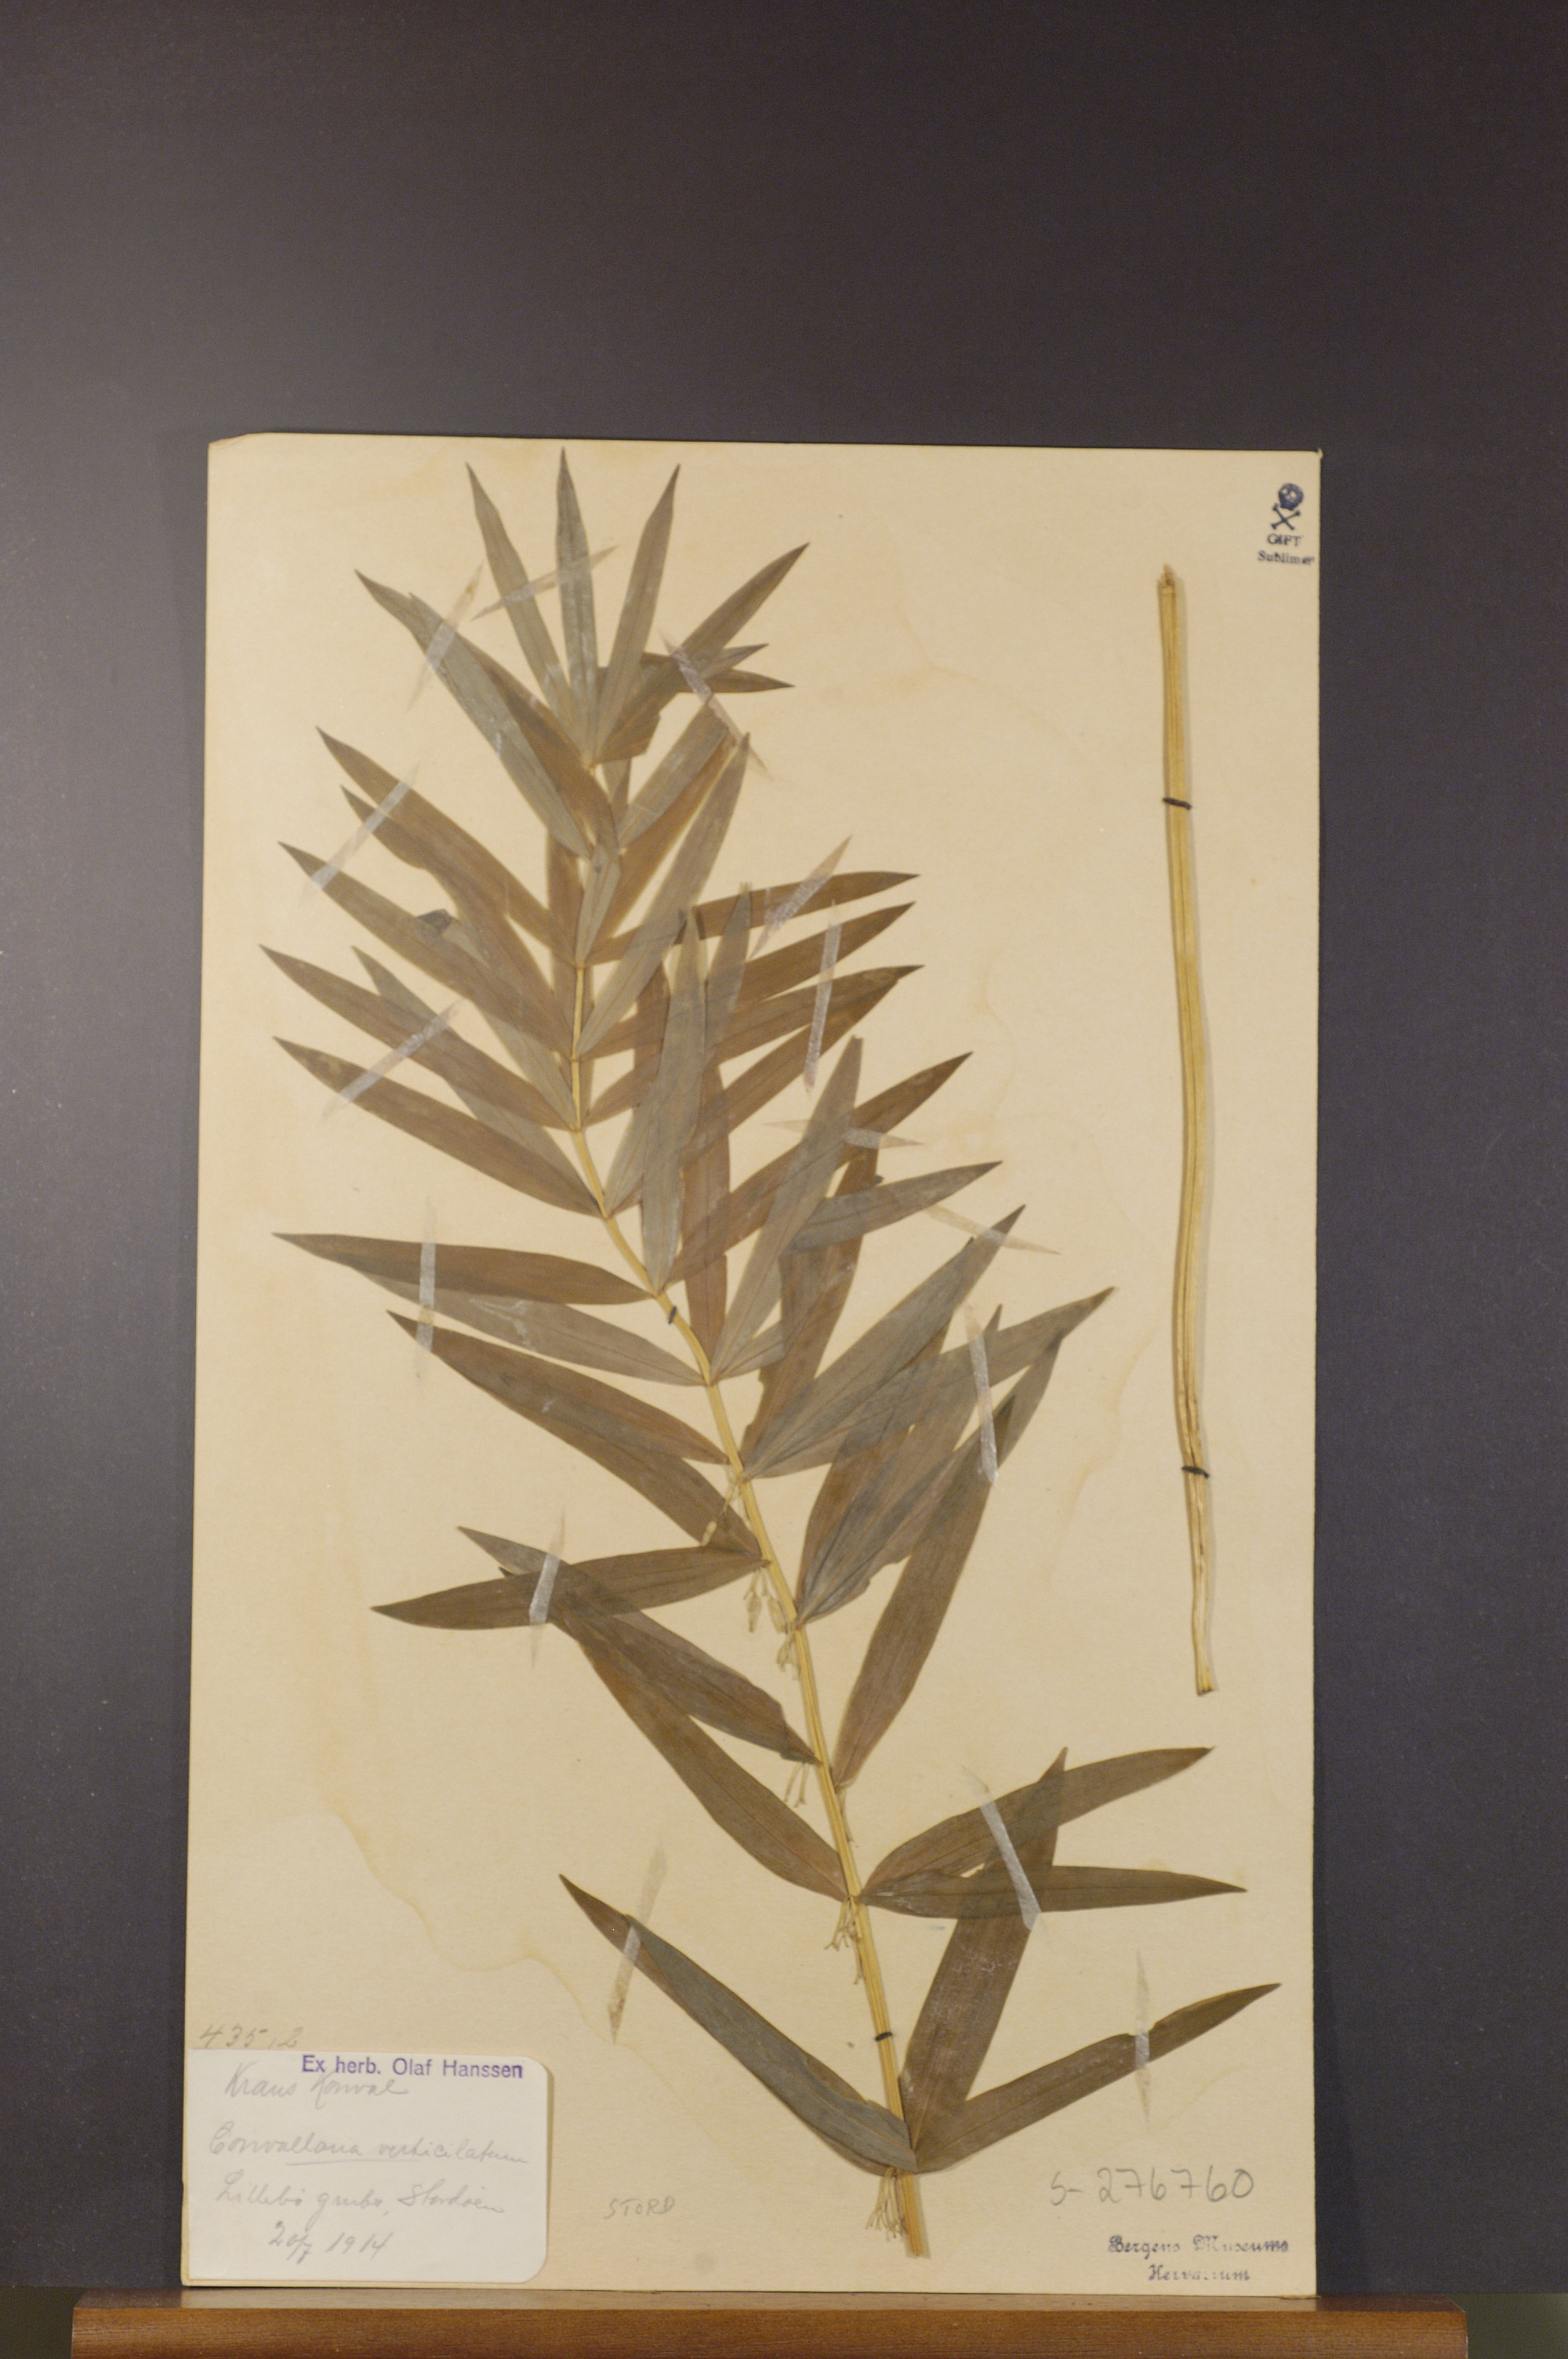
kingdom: Plantae
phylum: Tracheophyta
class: Liliopsida
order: Asparagales
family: Asparagaceae
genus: Polygonatum
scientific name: Polygonatum verticillatum
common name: Whorled solomon's-seal
